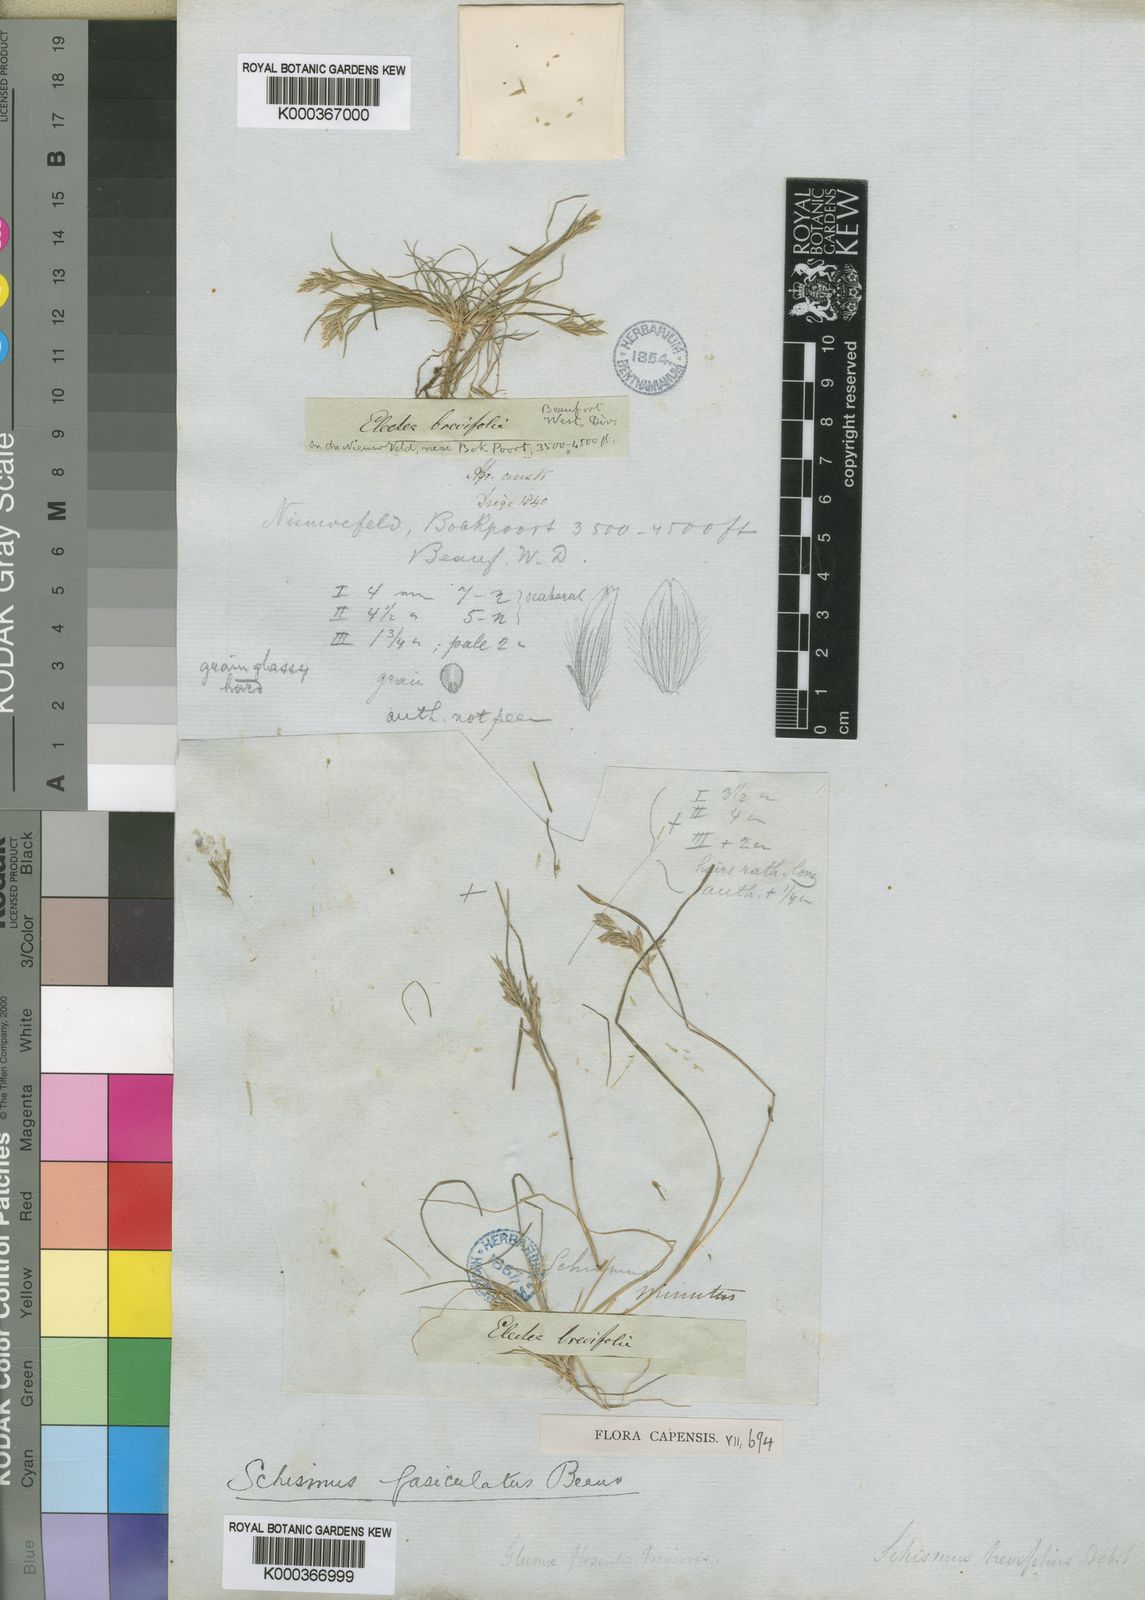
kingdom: Plantae
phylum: Tracheophyta
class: Liliopsida
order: Poales
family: Poaceae
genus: Schismus
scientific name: Schismus barbatus
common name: Kelch-grass
